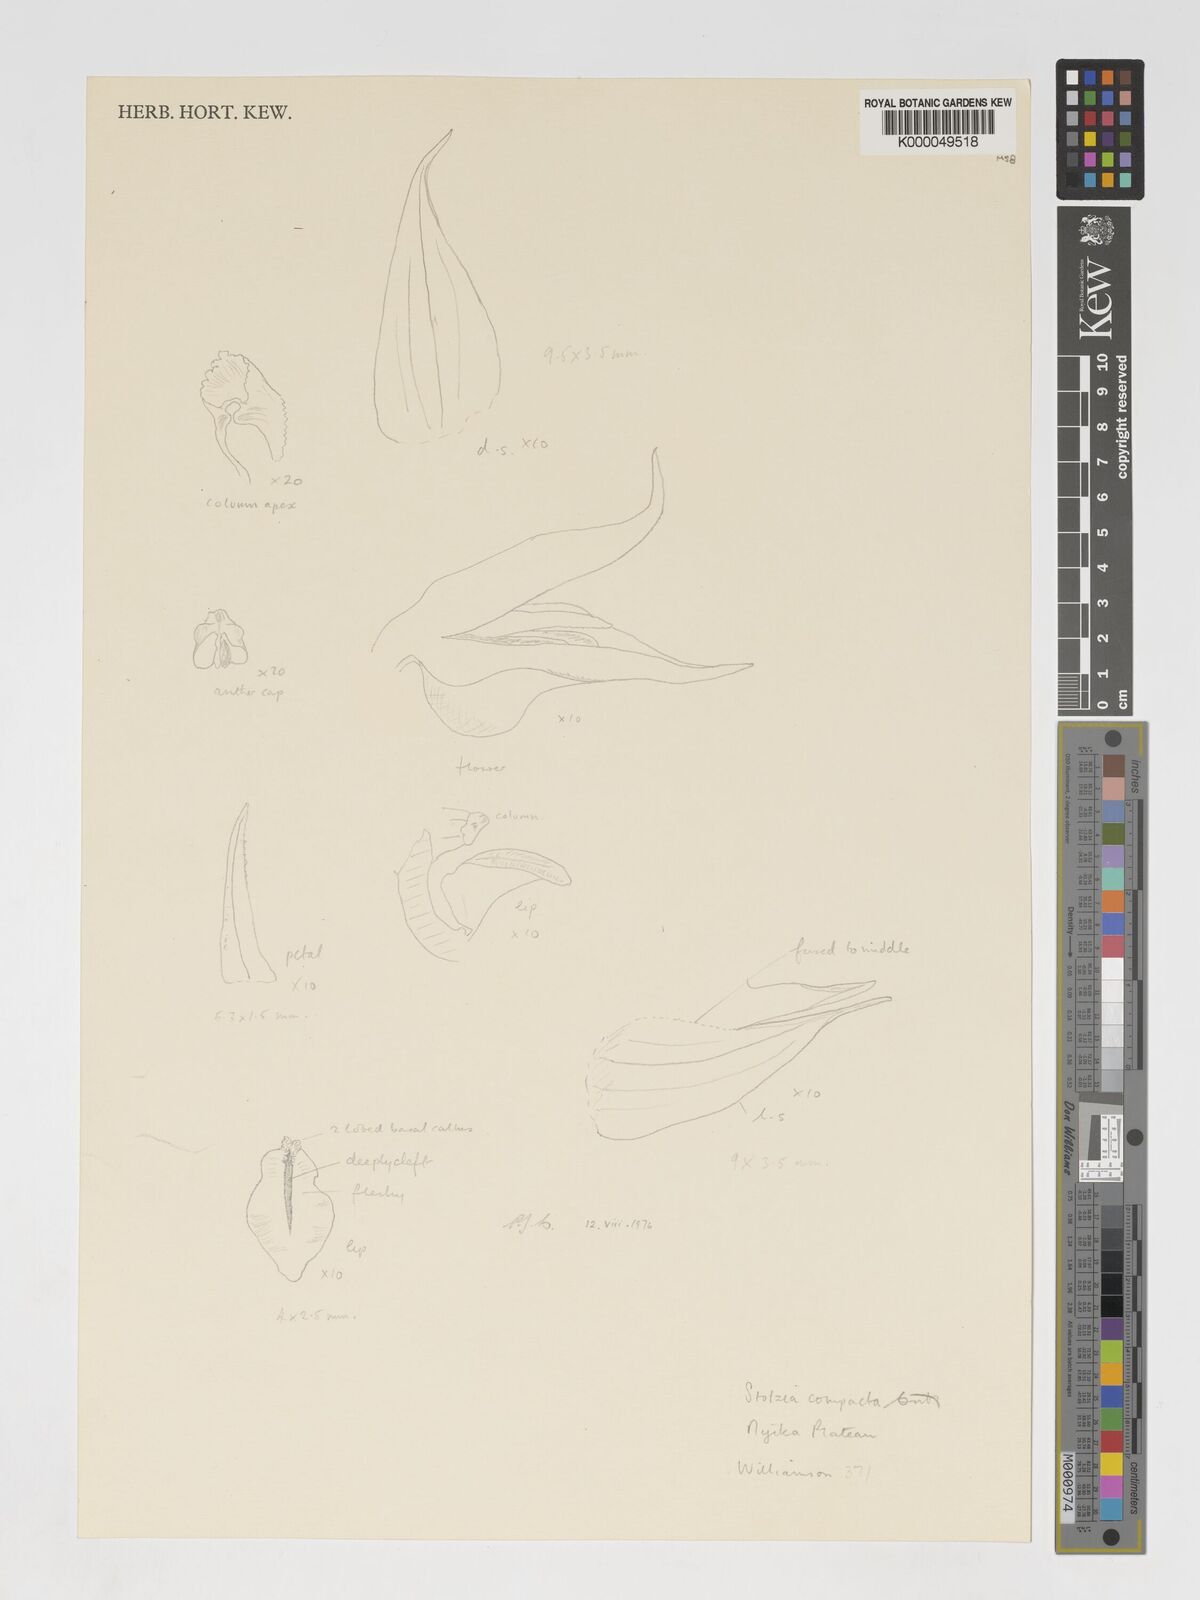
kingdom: Plantae
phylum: Tracheophyta
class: Liliopsida
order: Asparagales
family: Orchidaceae
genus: Porpax
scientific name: Porpax compacta
